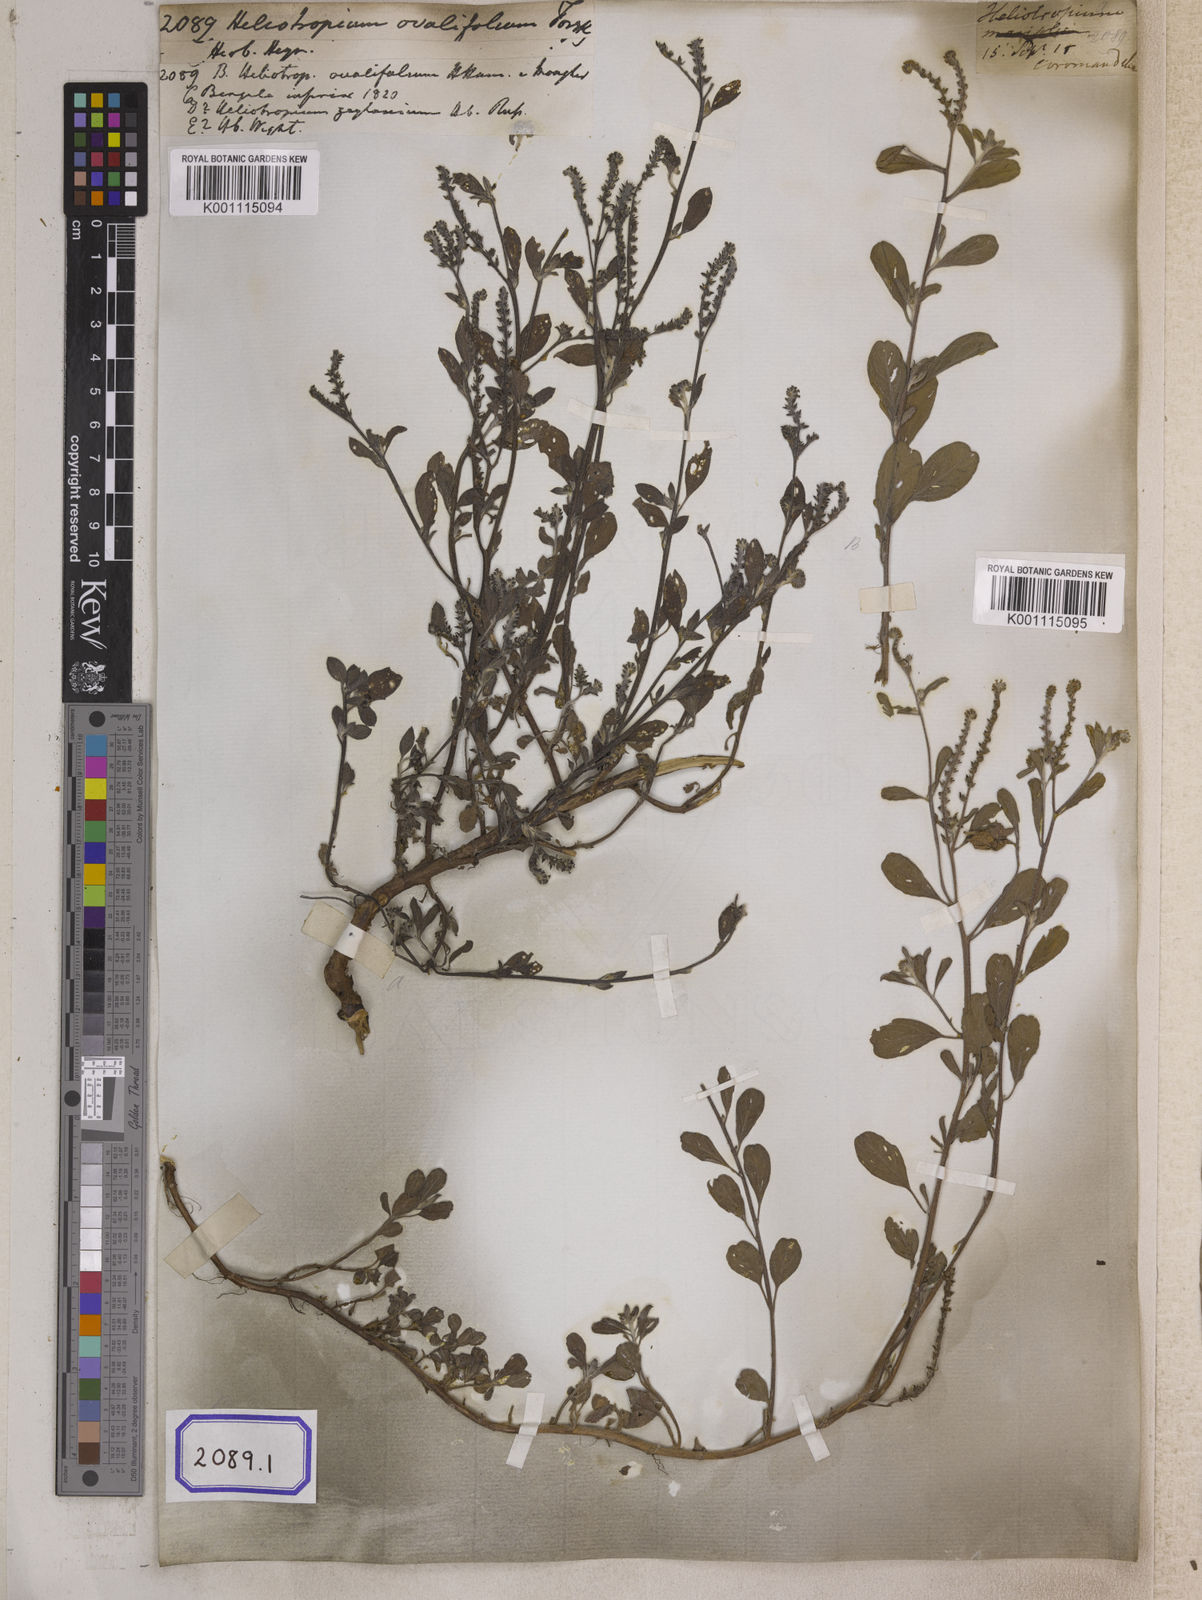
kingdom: Plantae
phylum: Tracheophyta
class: Magnoliopsida
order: Boraginales
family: Heliotropiaceae
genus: Euploca
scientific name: Euploca ovalifolia
